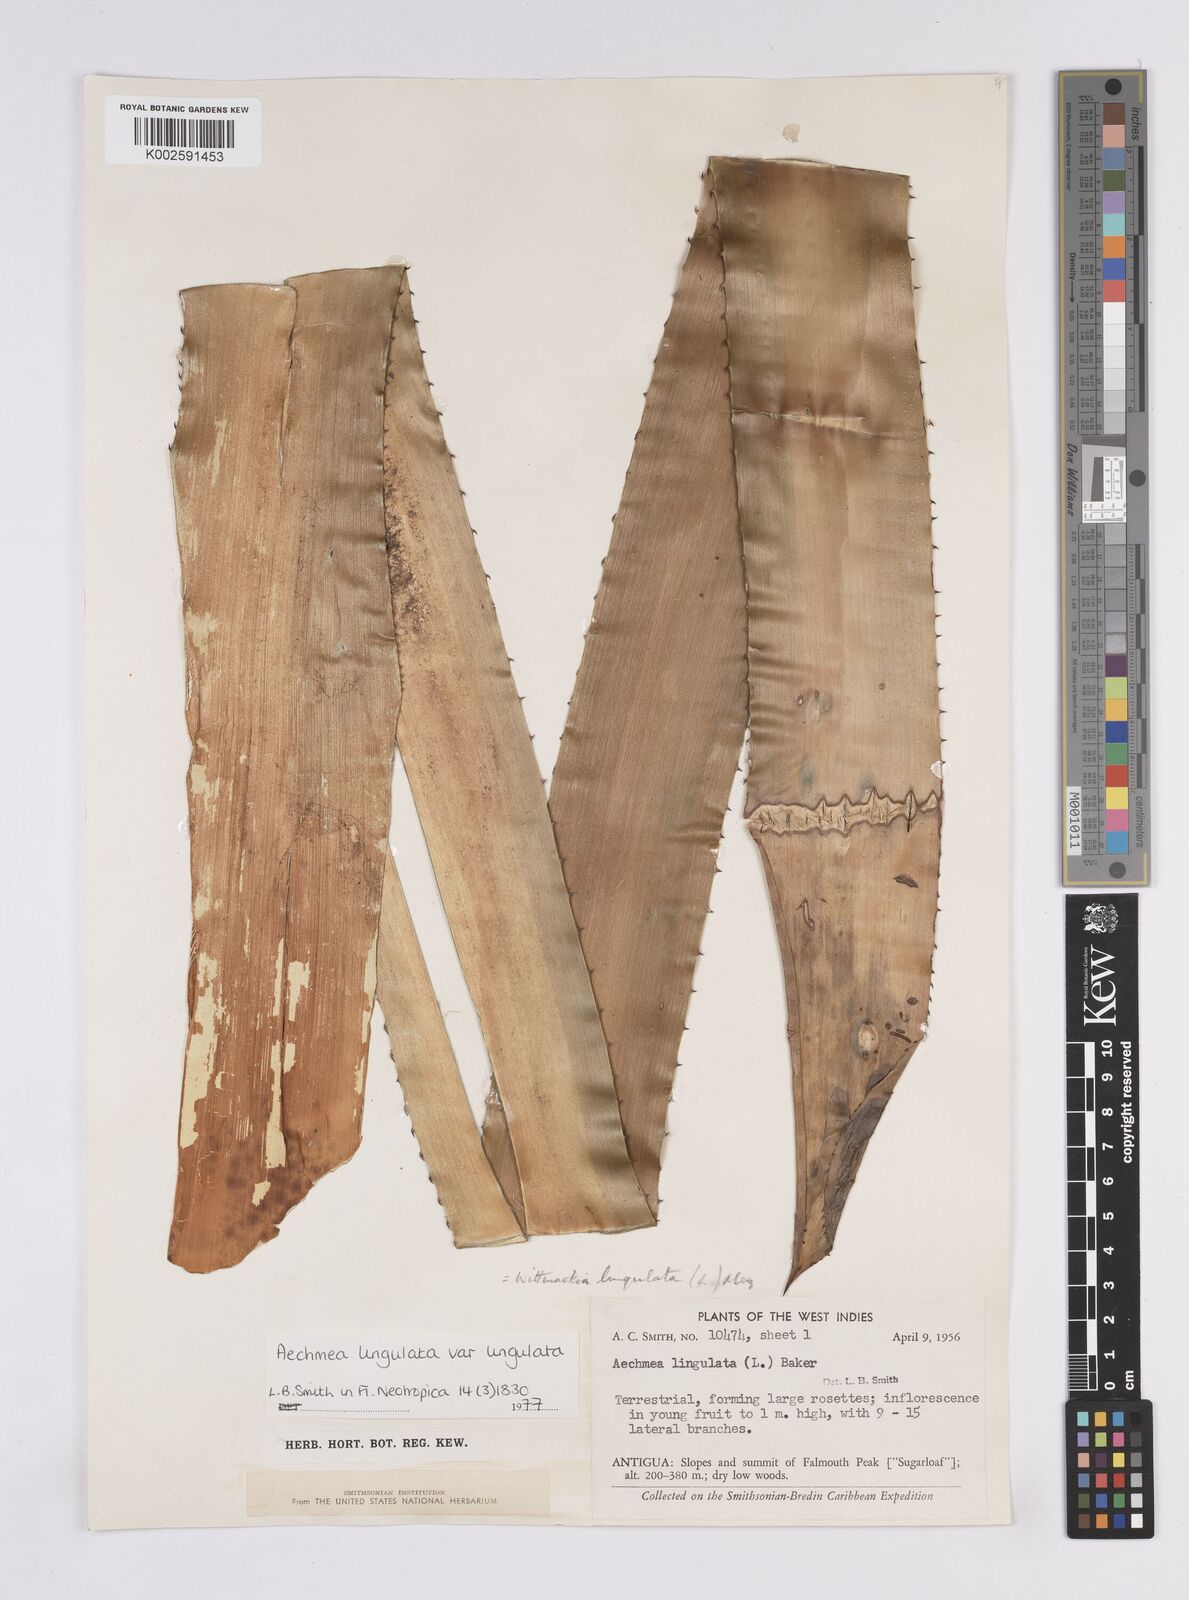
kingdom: Plantae
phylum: Tracheophyta
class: Liliopsida
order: Poales
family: Bromeliaceae
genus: Wittmackia
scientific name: Wittmackia lingulata
